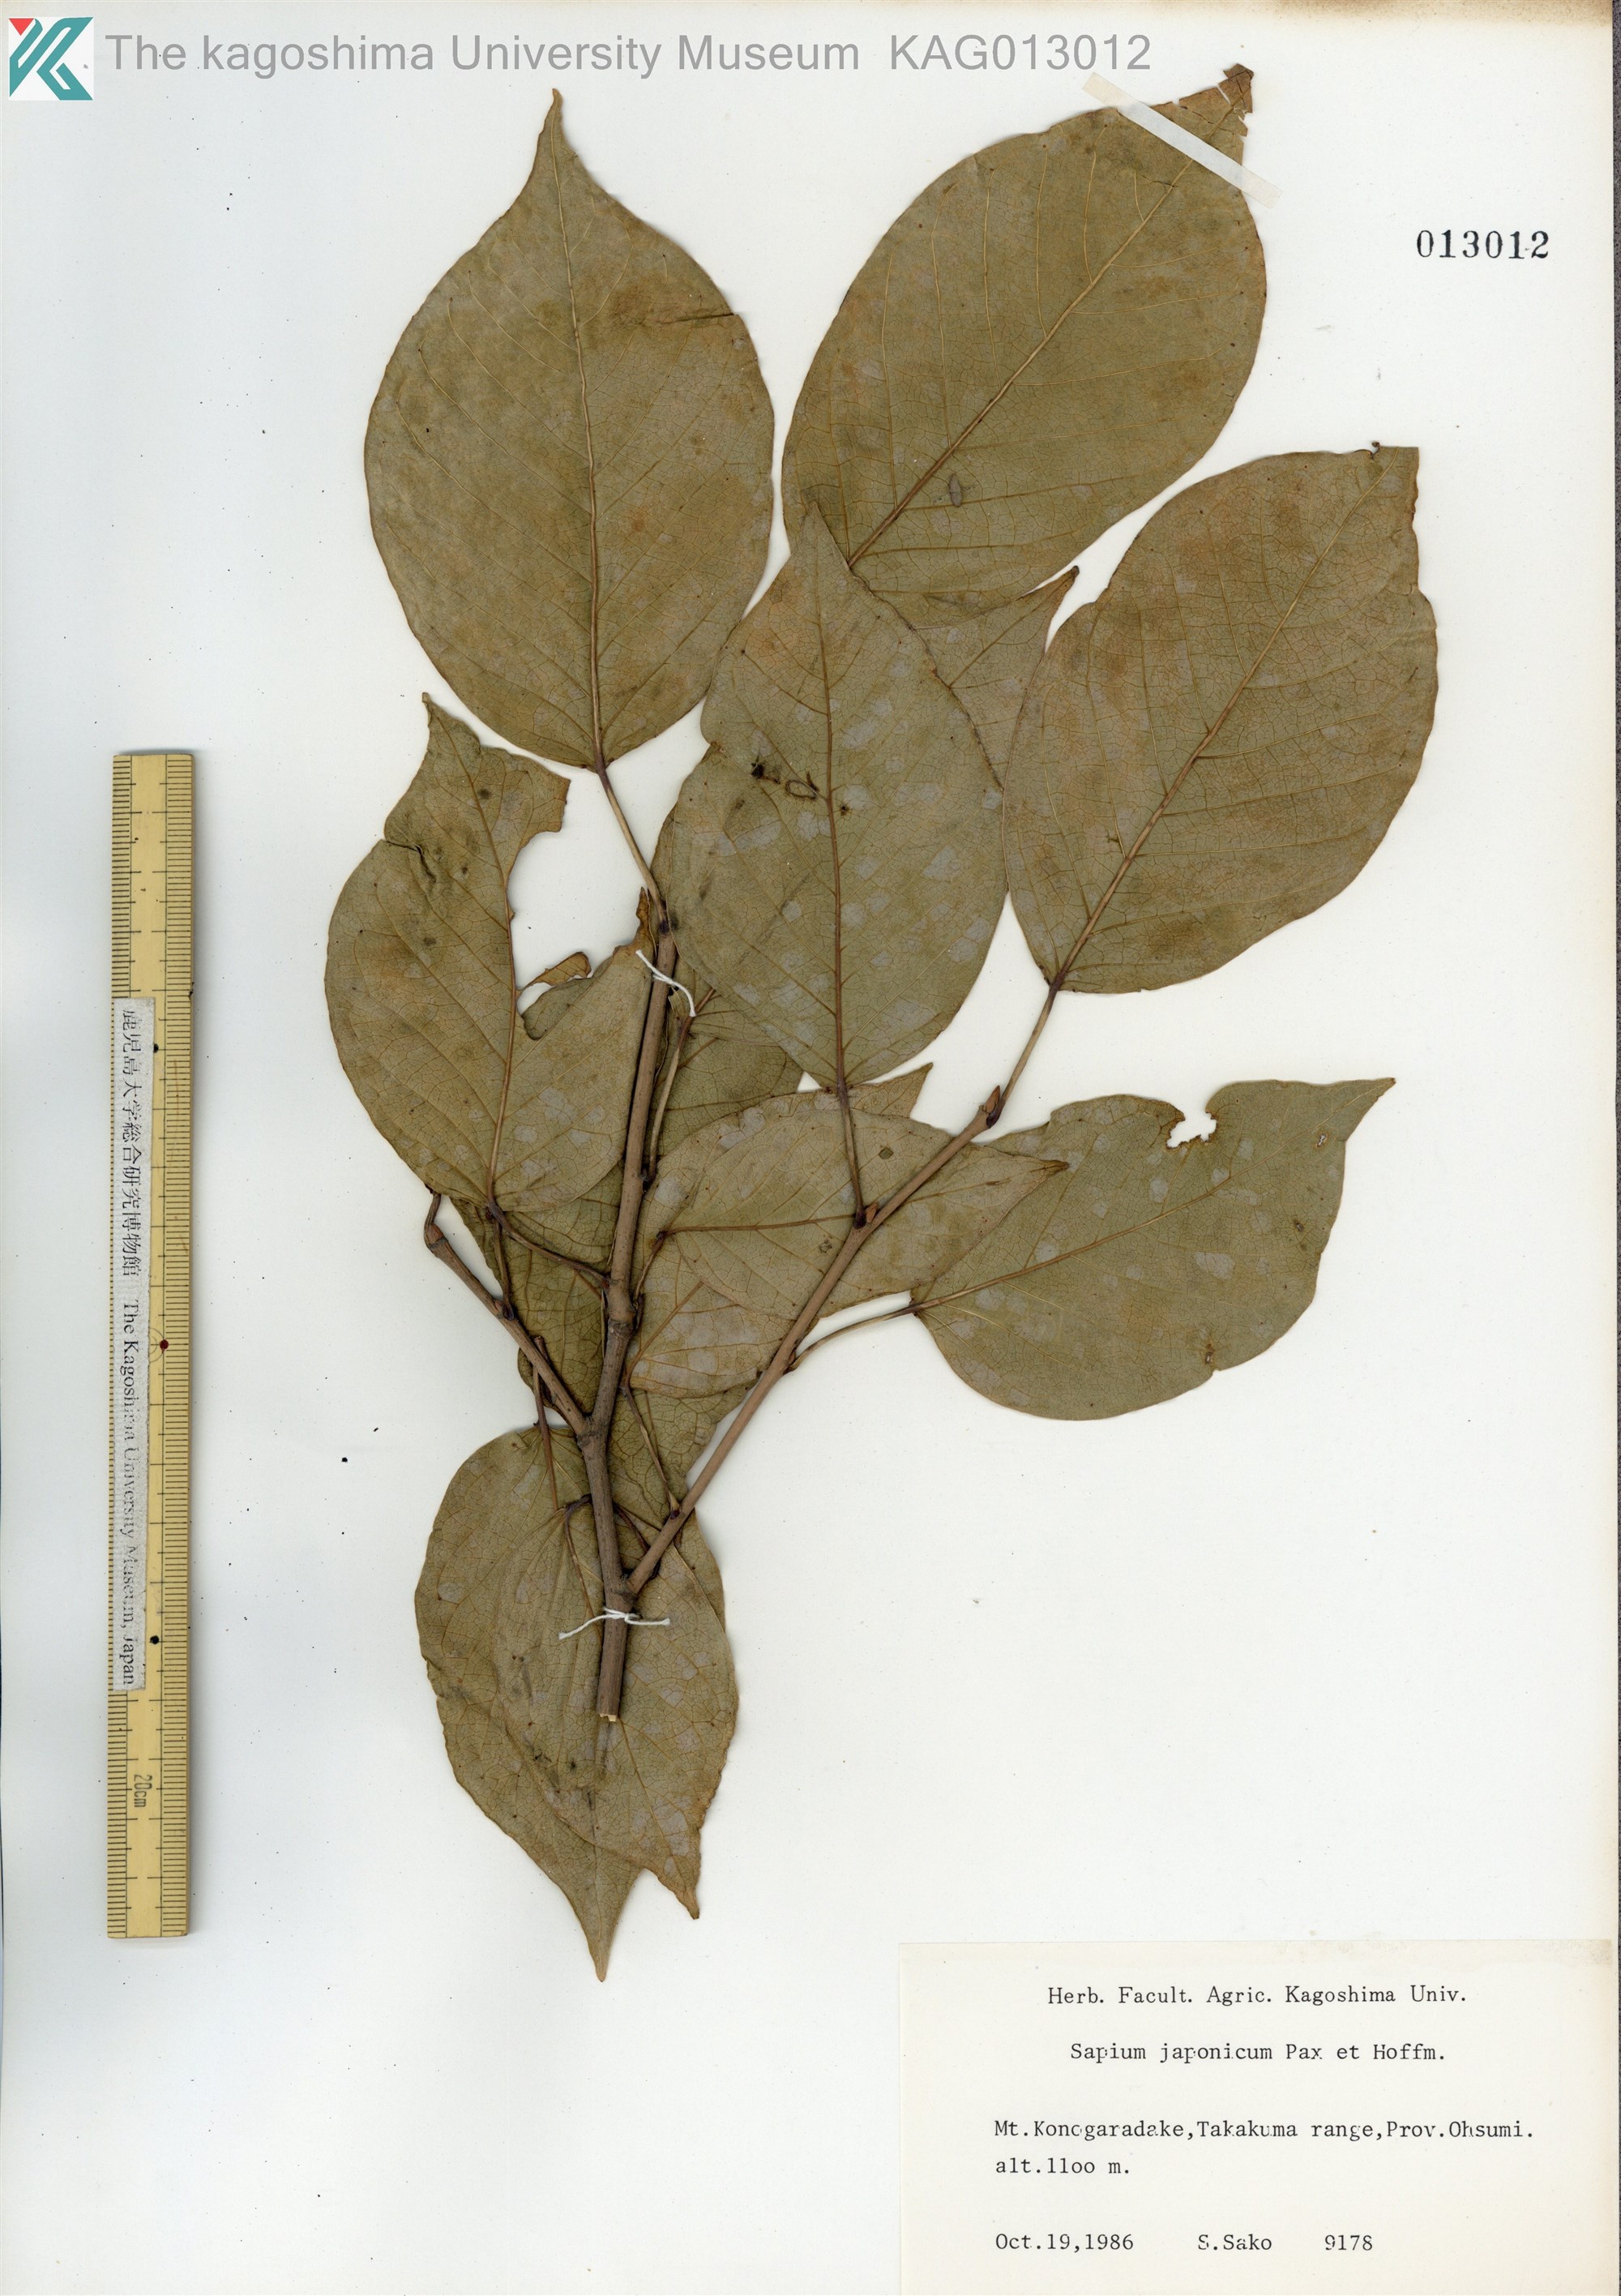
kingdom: Plantae
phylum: Tracheophyta
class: Magnoliopsida
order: Malpighiales
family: Euphorbiaceae
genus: Neoshirakia
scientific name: Neoshirakia japonica
